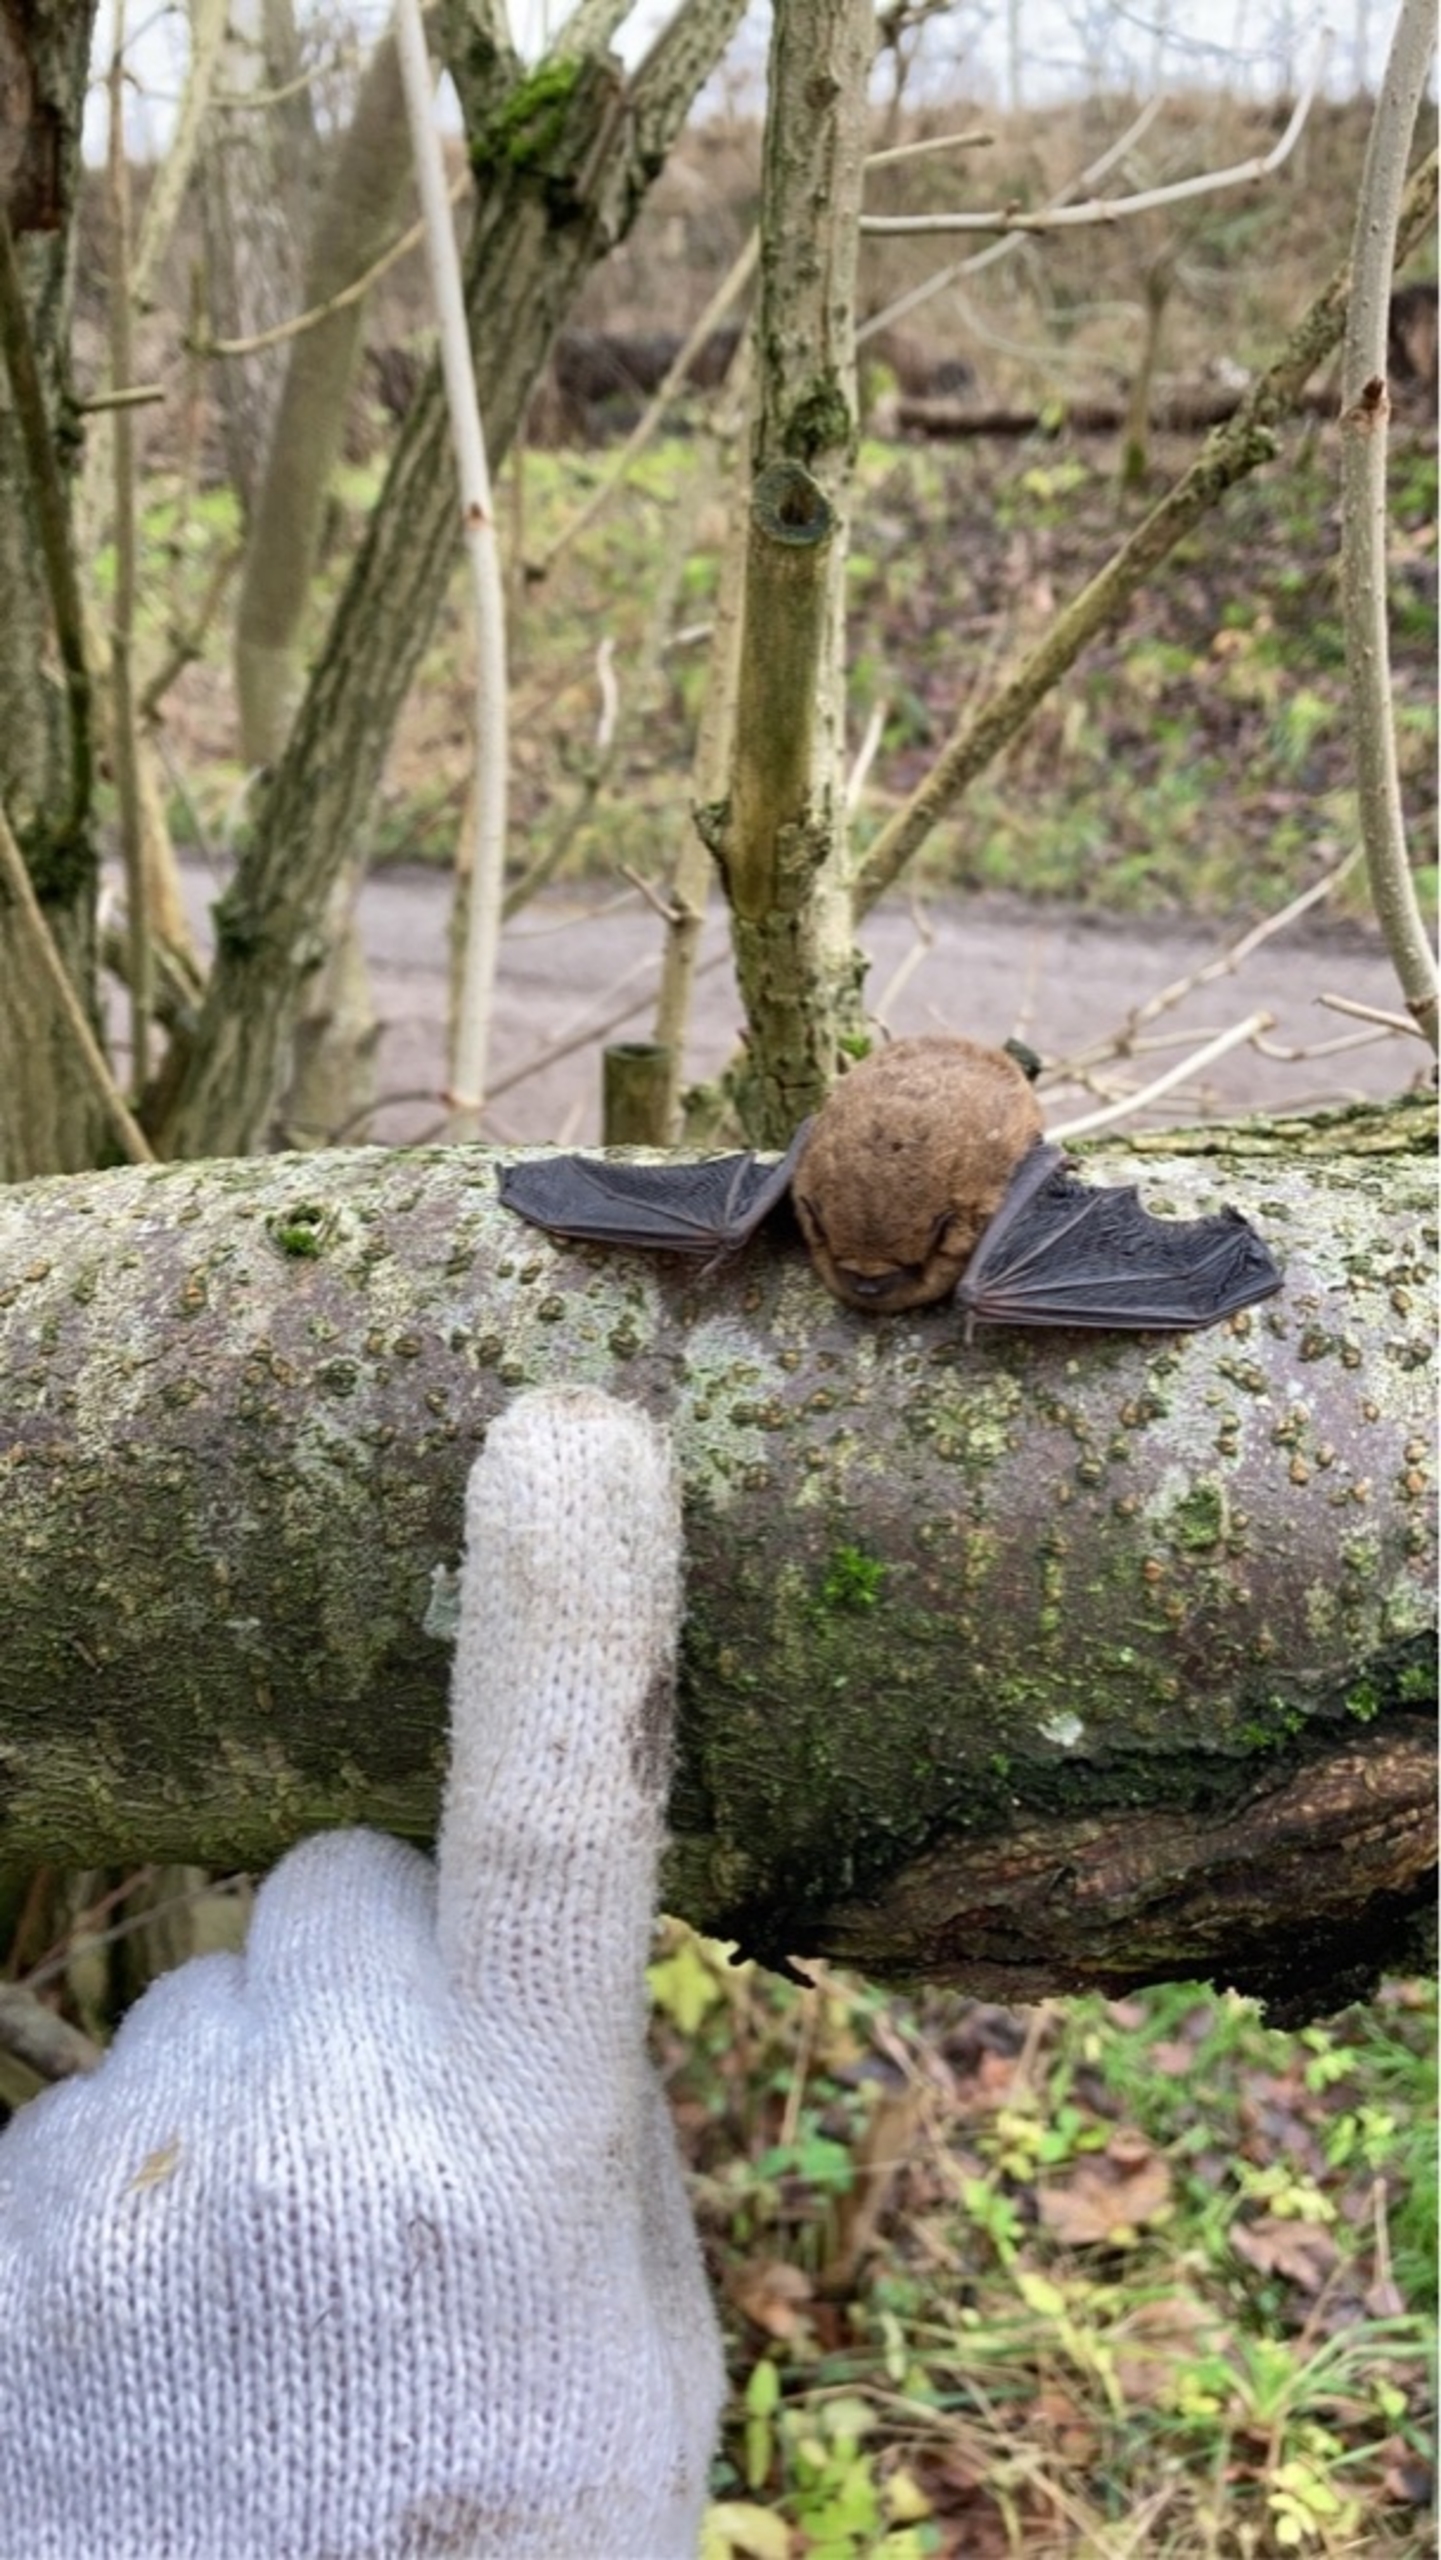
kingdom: Animalia
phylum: Chordata
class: Mammalia
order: Chiroptera
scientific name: Chiroptera
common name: Flagermus
